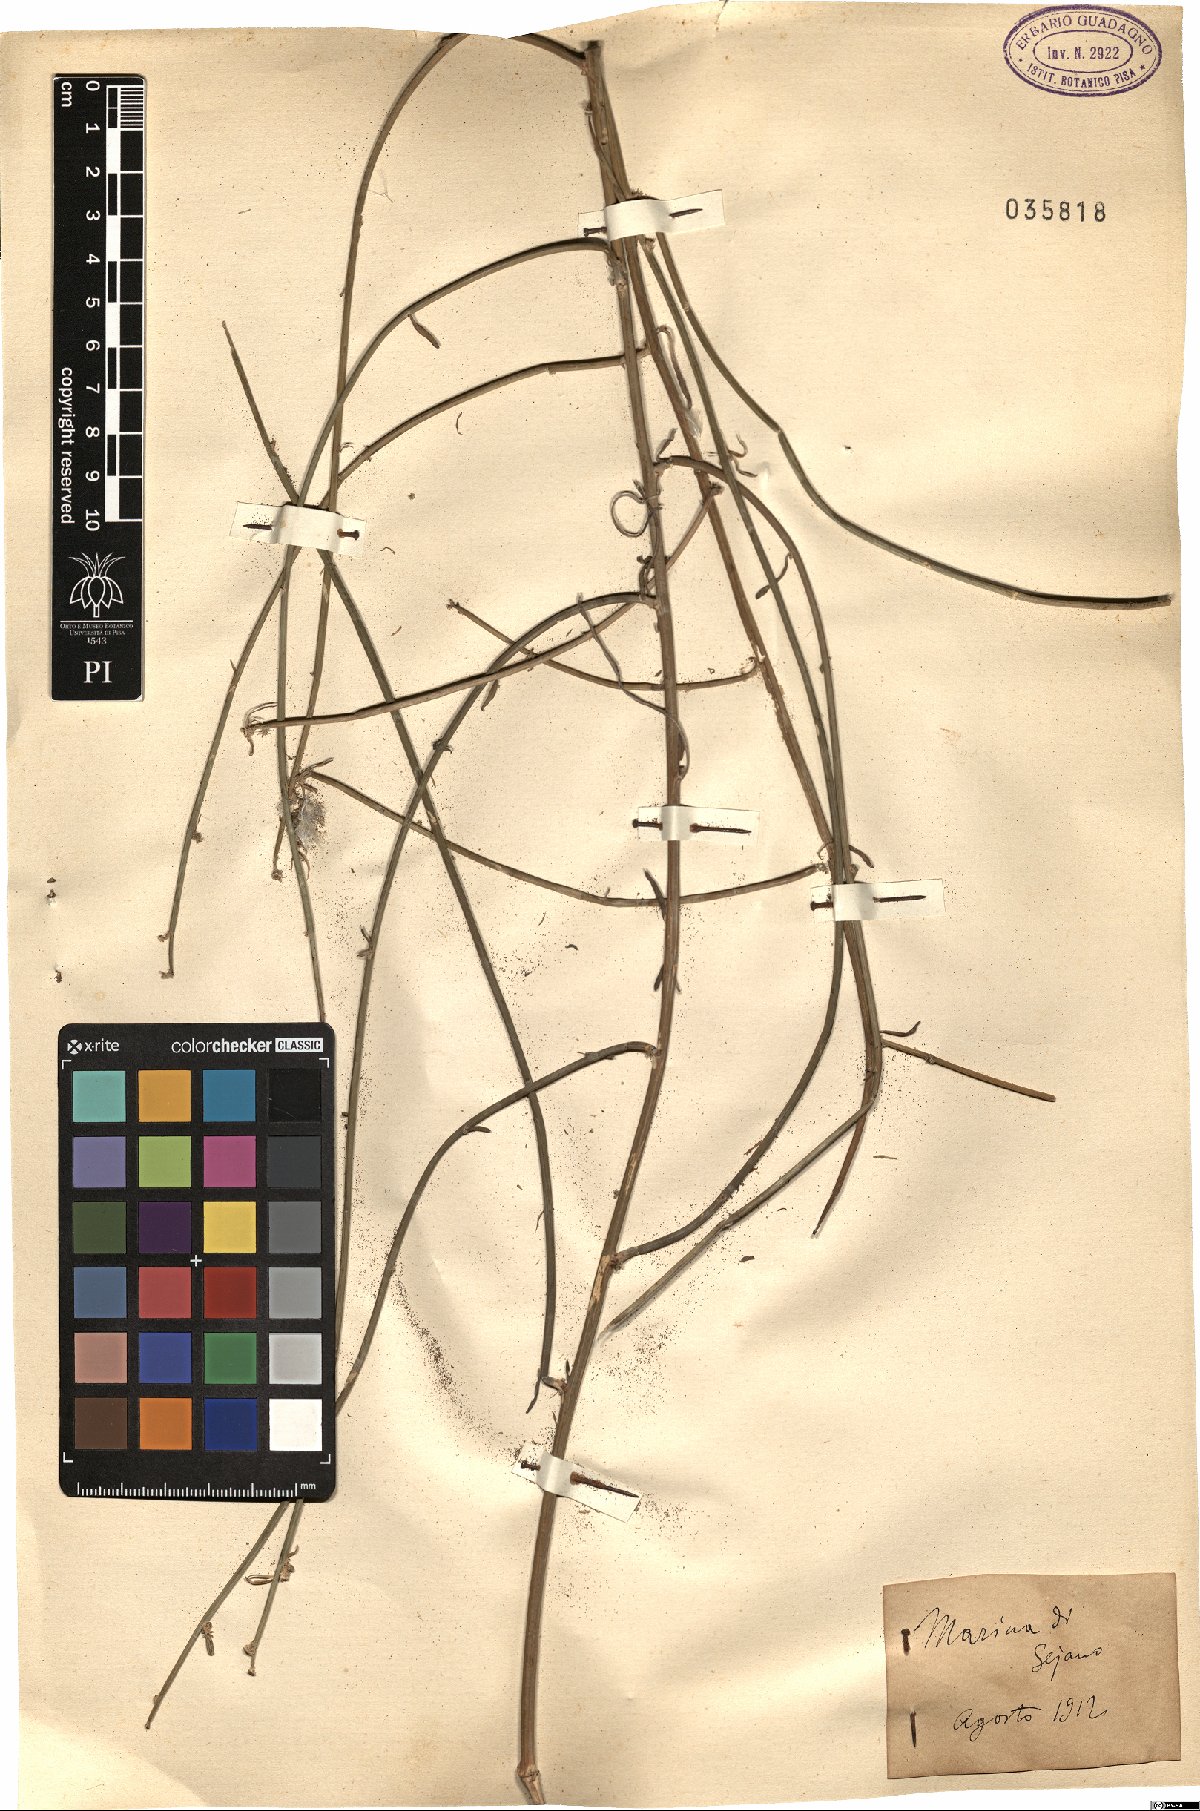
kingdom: Plantae
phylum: Tracheophyta
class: Magnoliopsida
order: Asterales
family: Asteraceae
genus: Chondrilla
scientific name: Chondrilla
